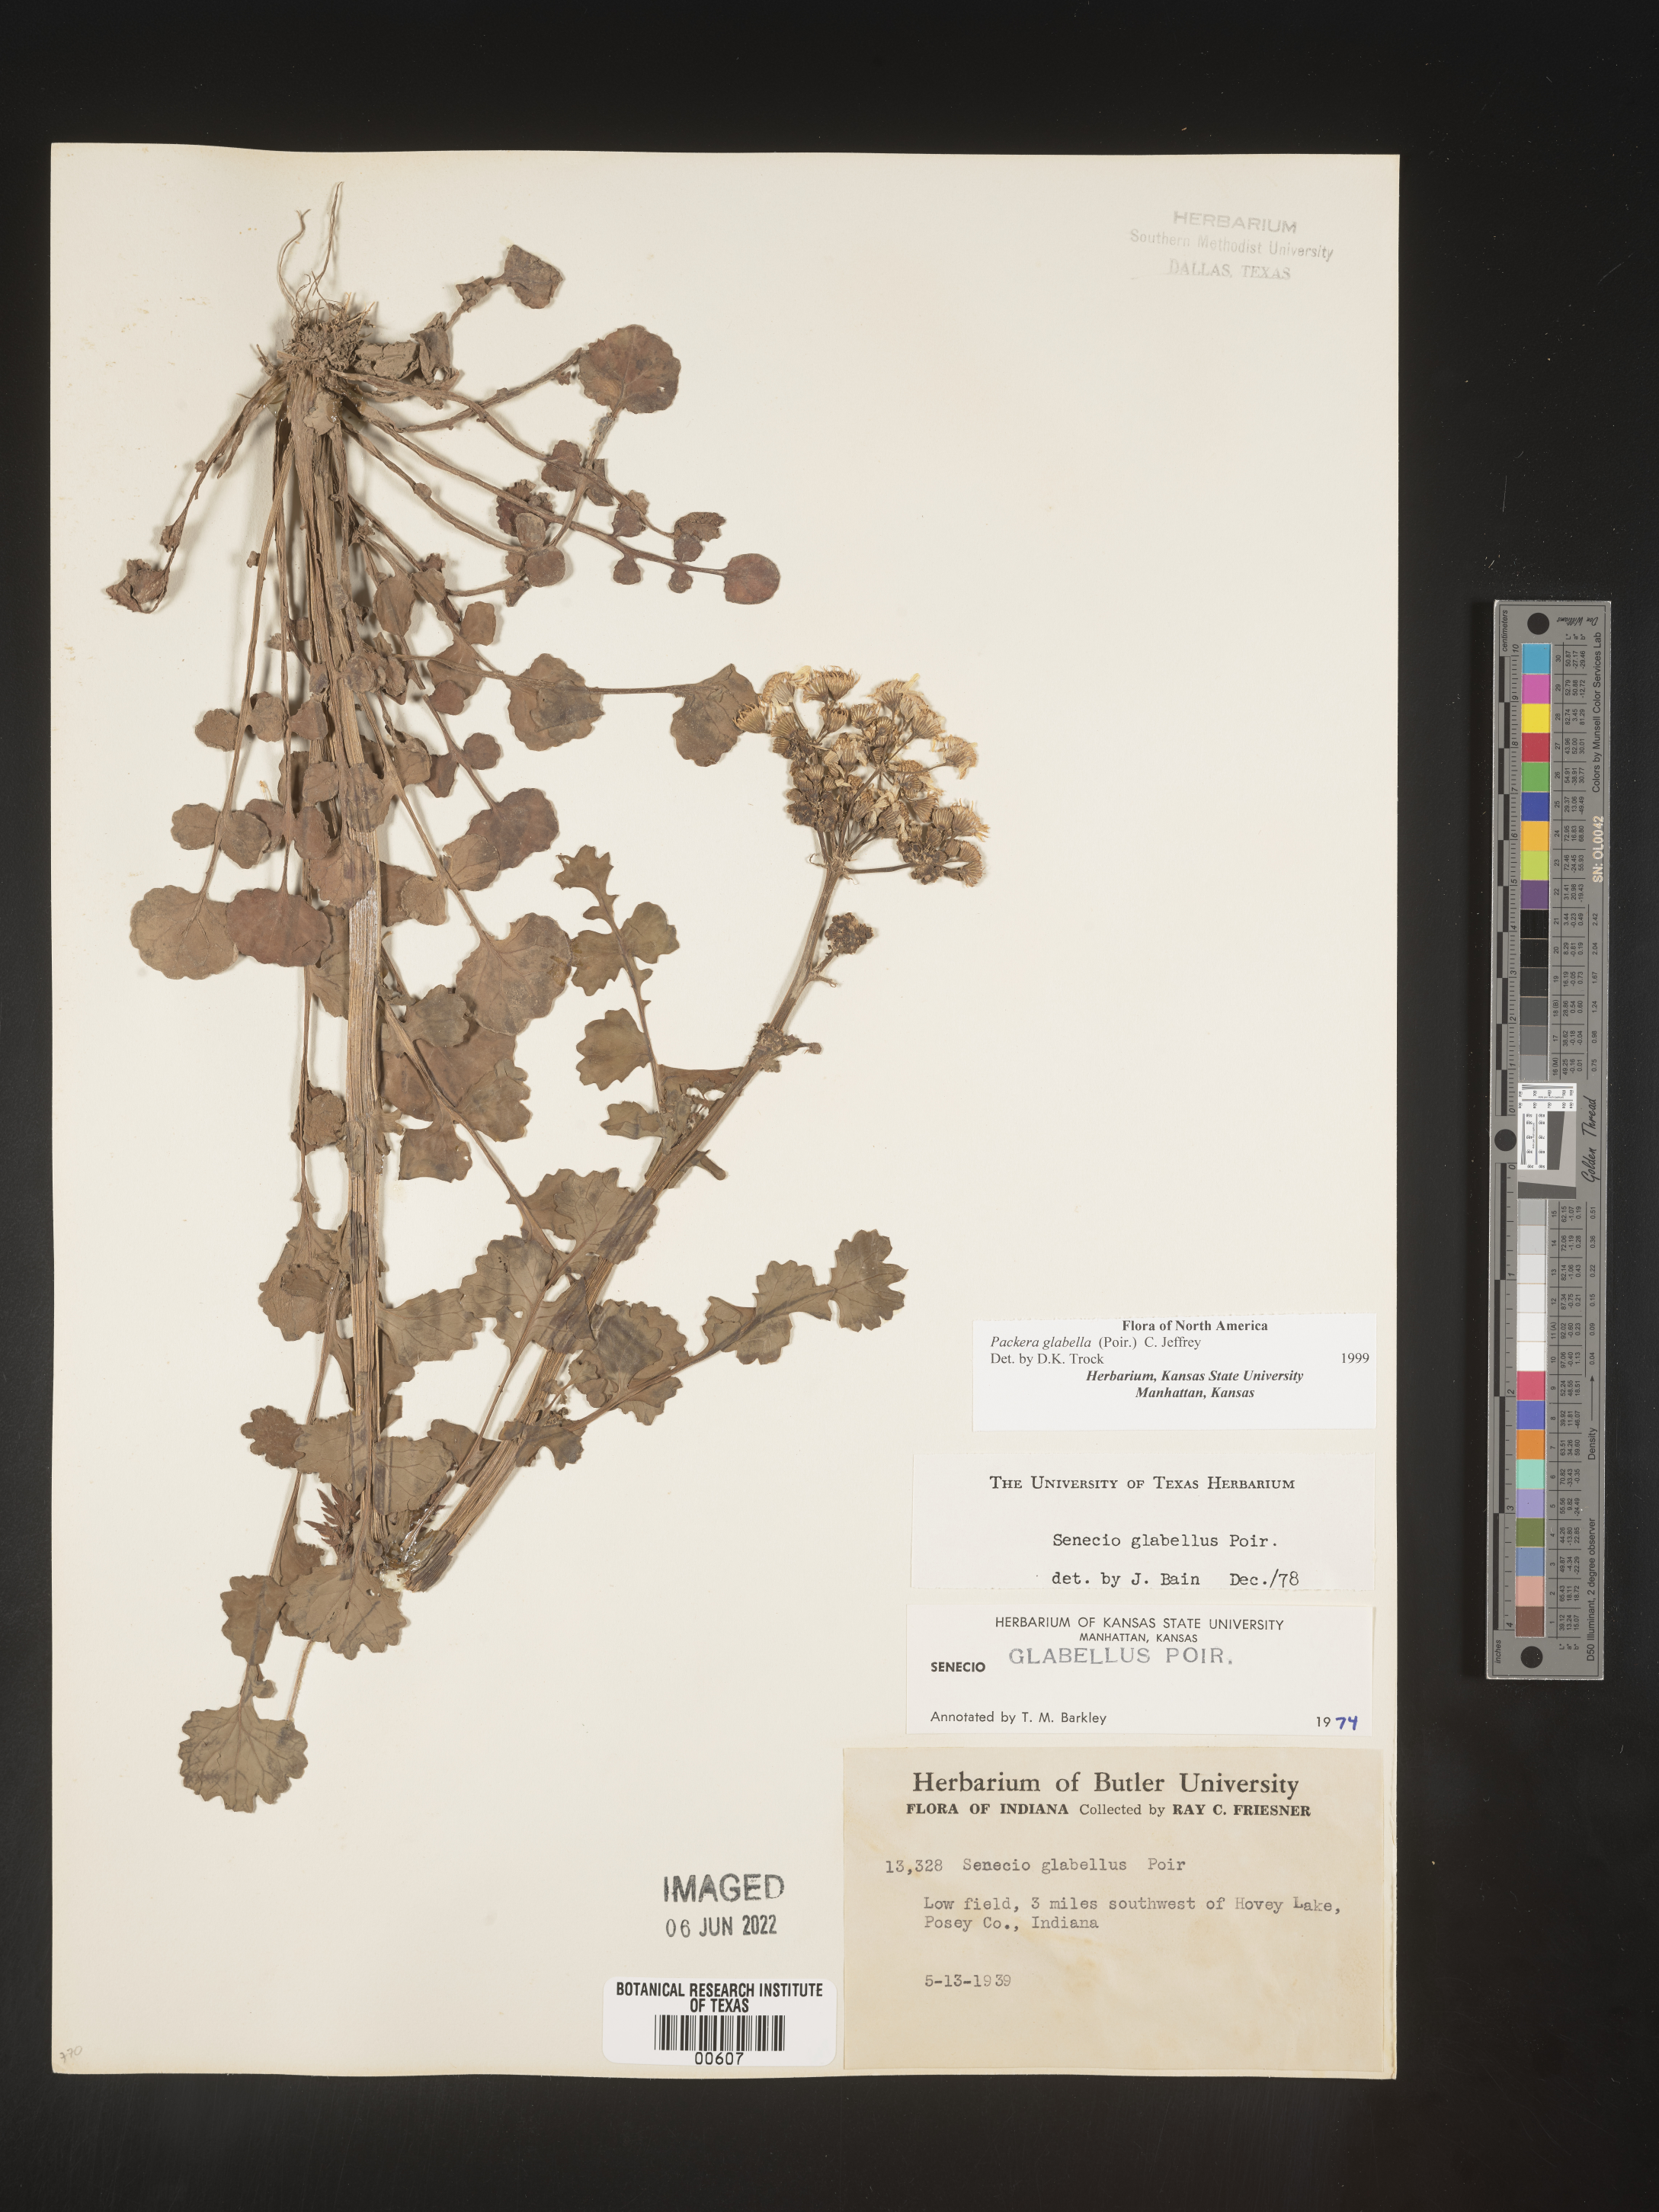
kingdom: Plantae
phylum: Tracheophyta
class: Magnoliopsida
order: Asterales
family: Asteraceae
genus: Packera
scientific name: Packera glabella
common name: Butterweed
